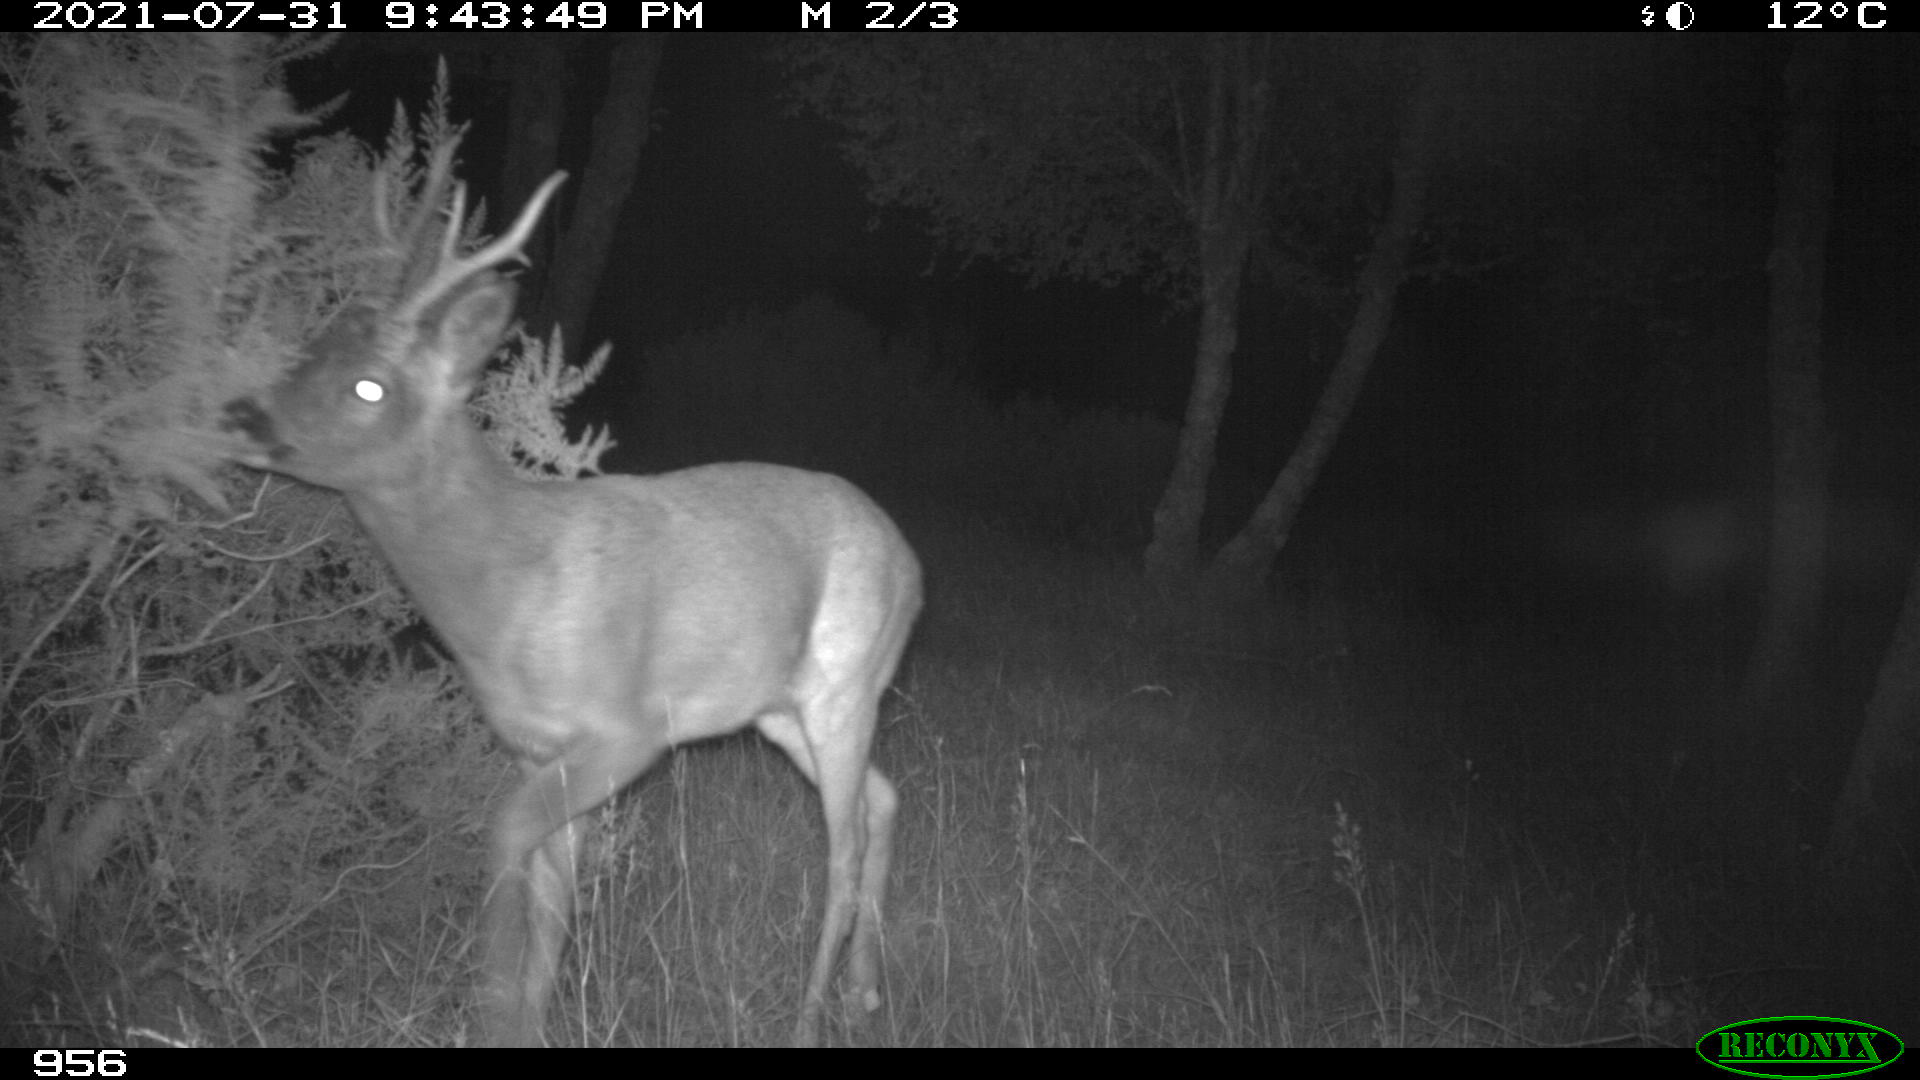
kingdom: Animalia
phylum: Chordata
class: Mammalia
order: Artiodactyla
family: Cervidae
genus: Capreolus
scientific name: Capreolus capreolus
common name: Western roe deer
